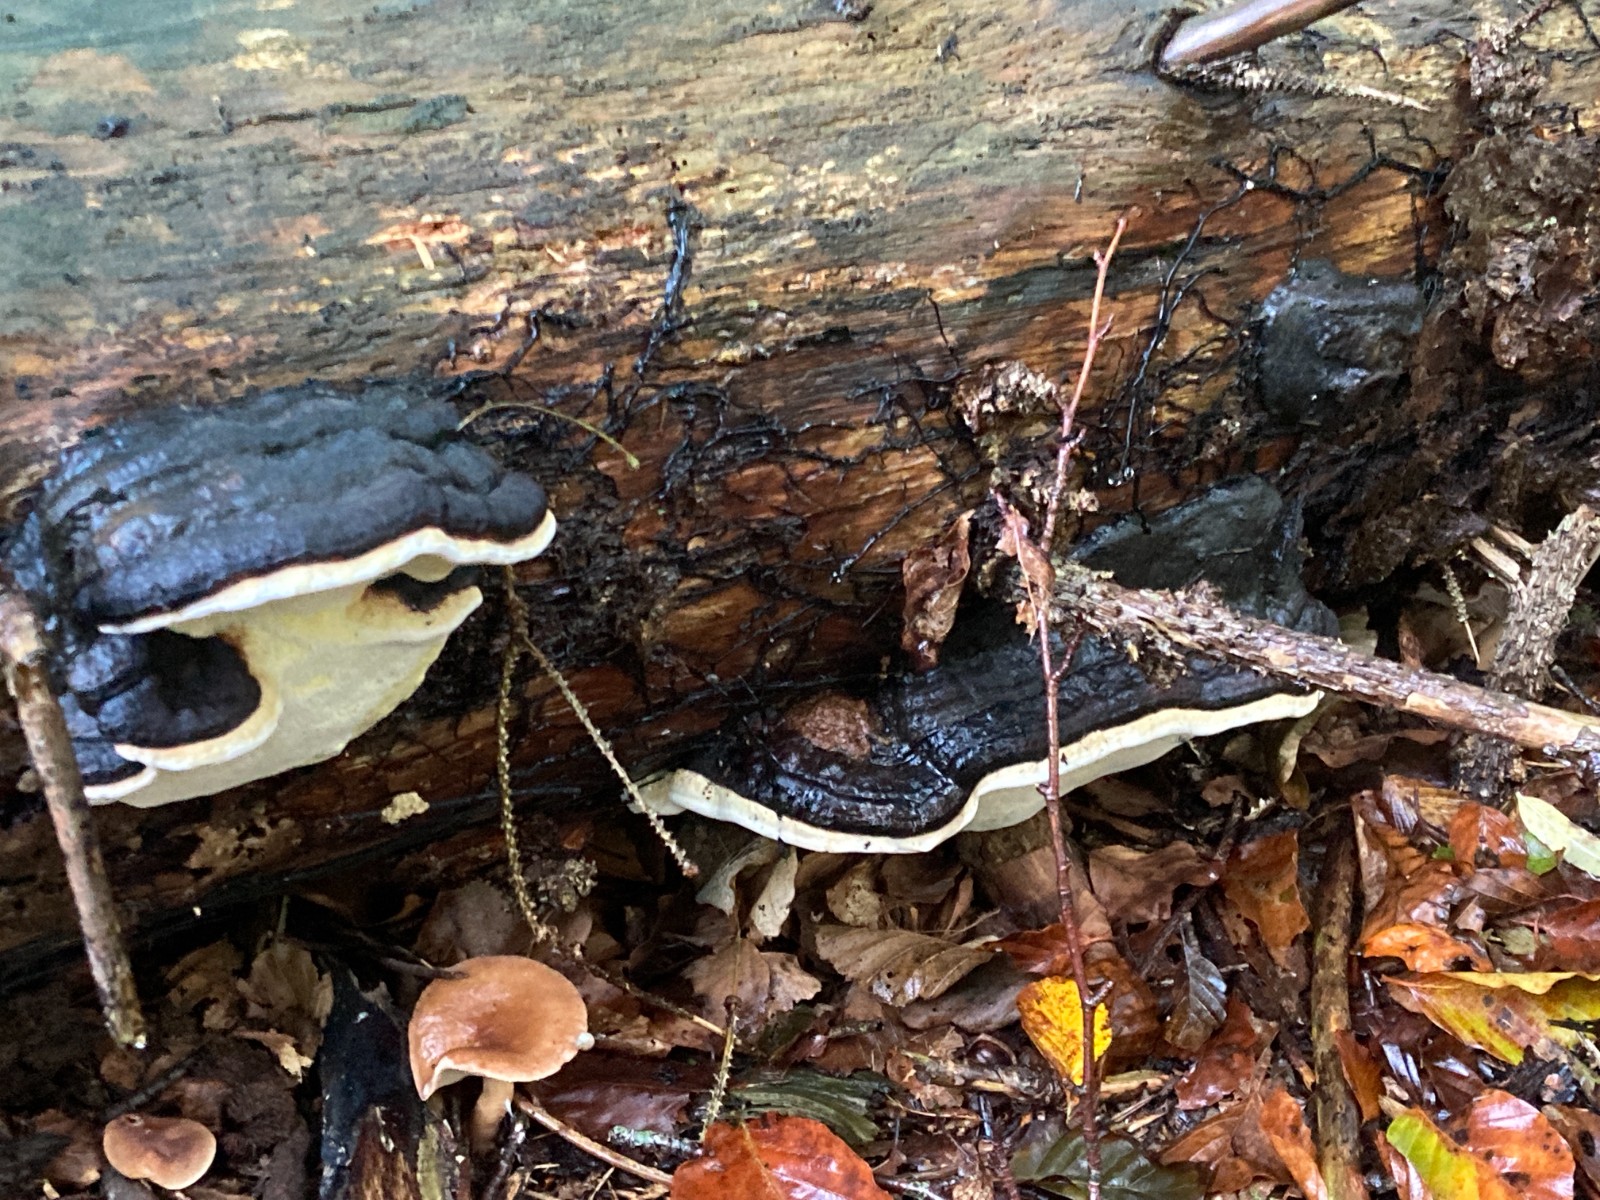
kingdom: Fungi
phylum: Basidiomycota
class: Agaricomycetes
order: Polyporales
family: Fomitopsidaceae
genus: Fomitopsis
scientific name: Fomitopsis pinicola
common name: randbæltet hovporesvamp
